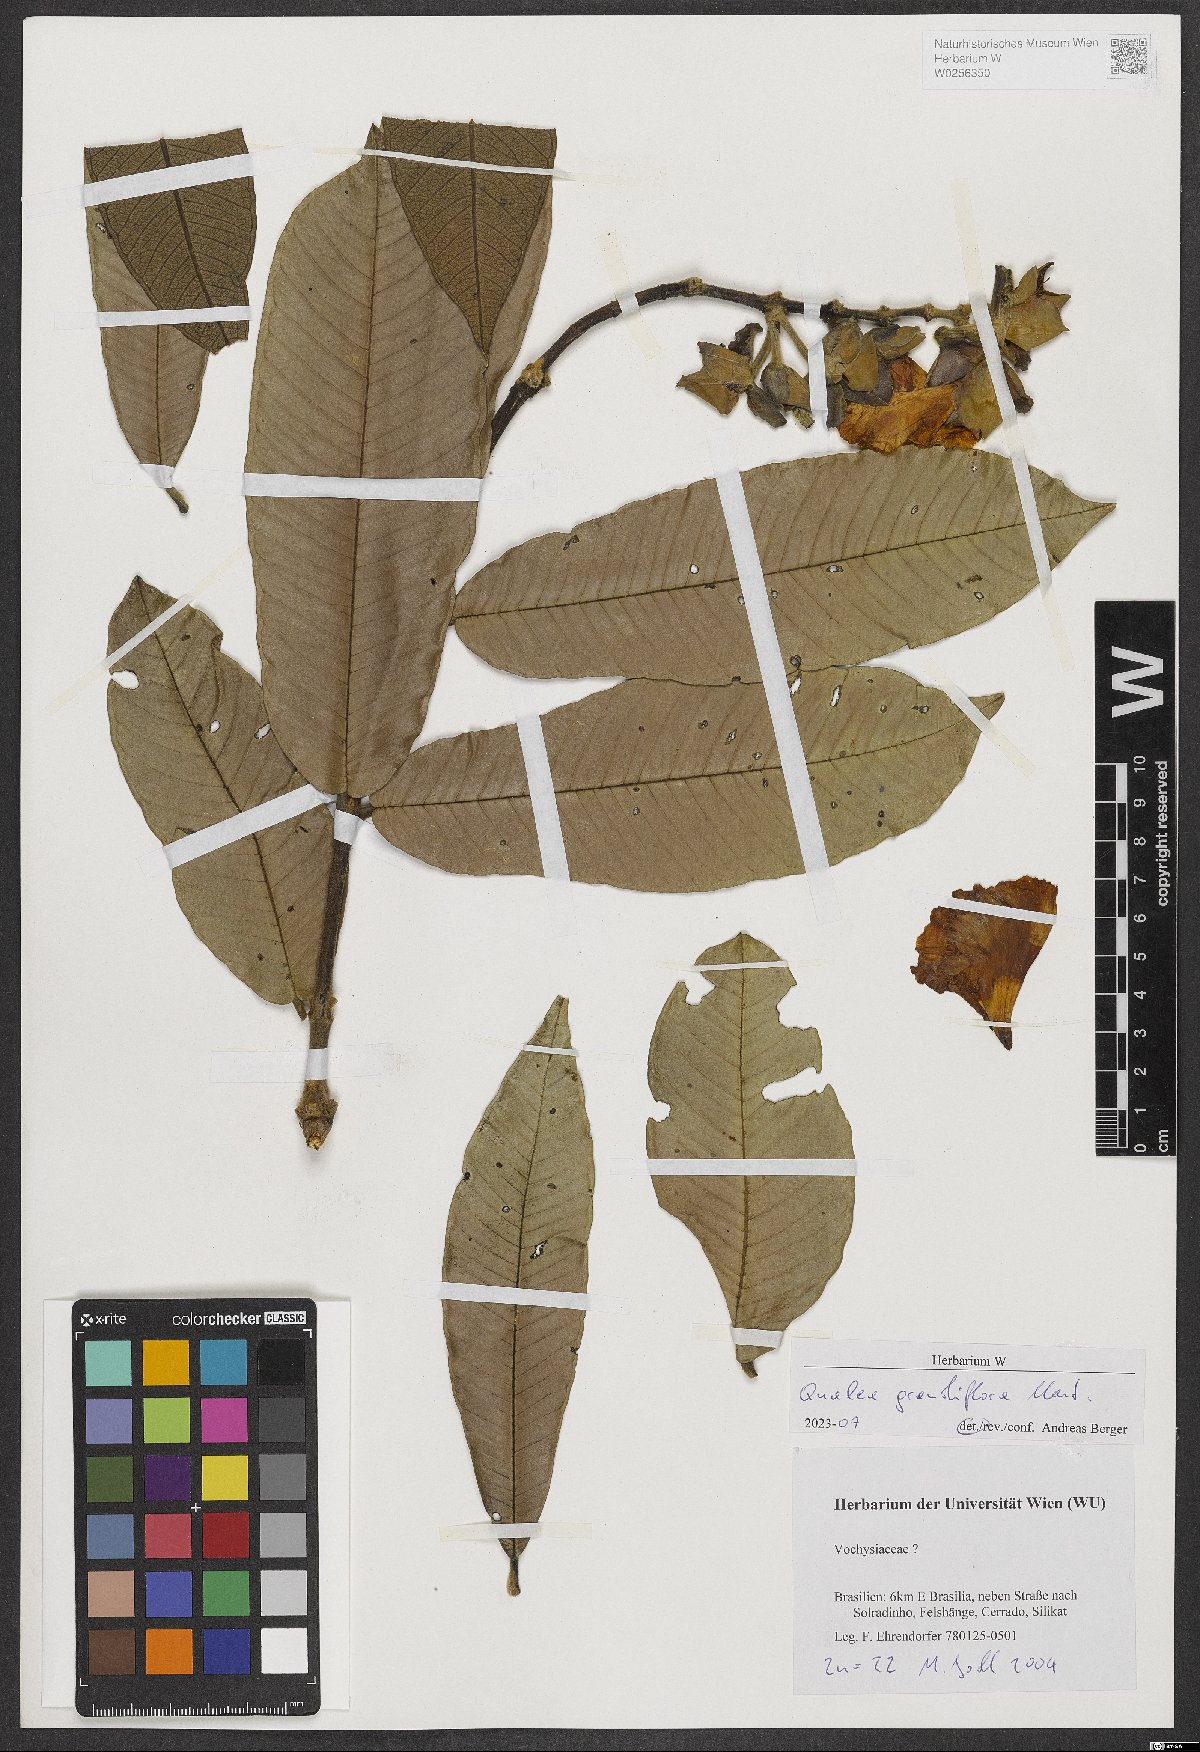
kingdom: Plantae
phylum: Tracheophyta
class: Magnoliopsida
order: Myrtales
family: Vochysiaceae
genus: Qualea
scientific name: Qualea grandiflora
